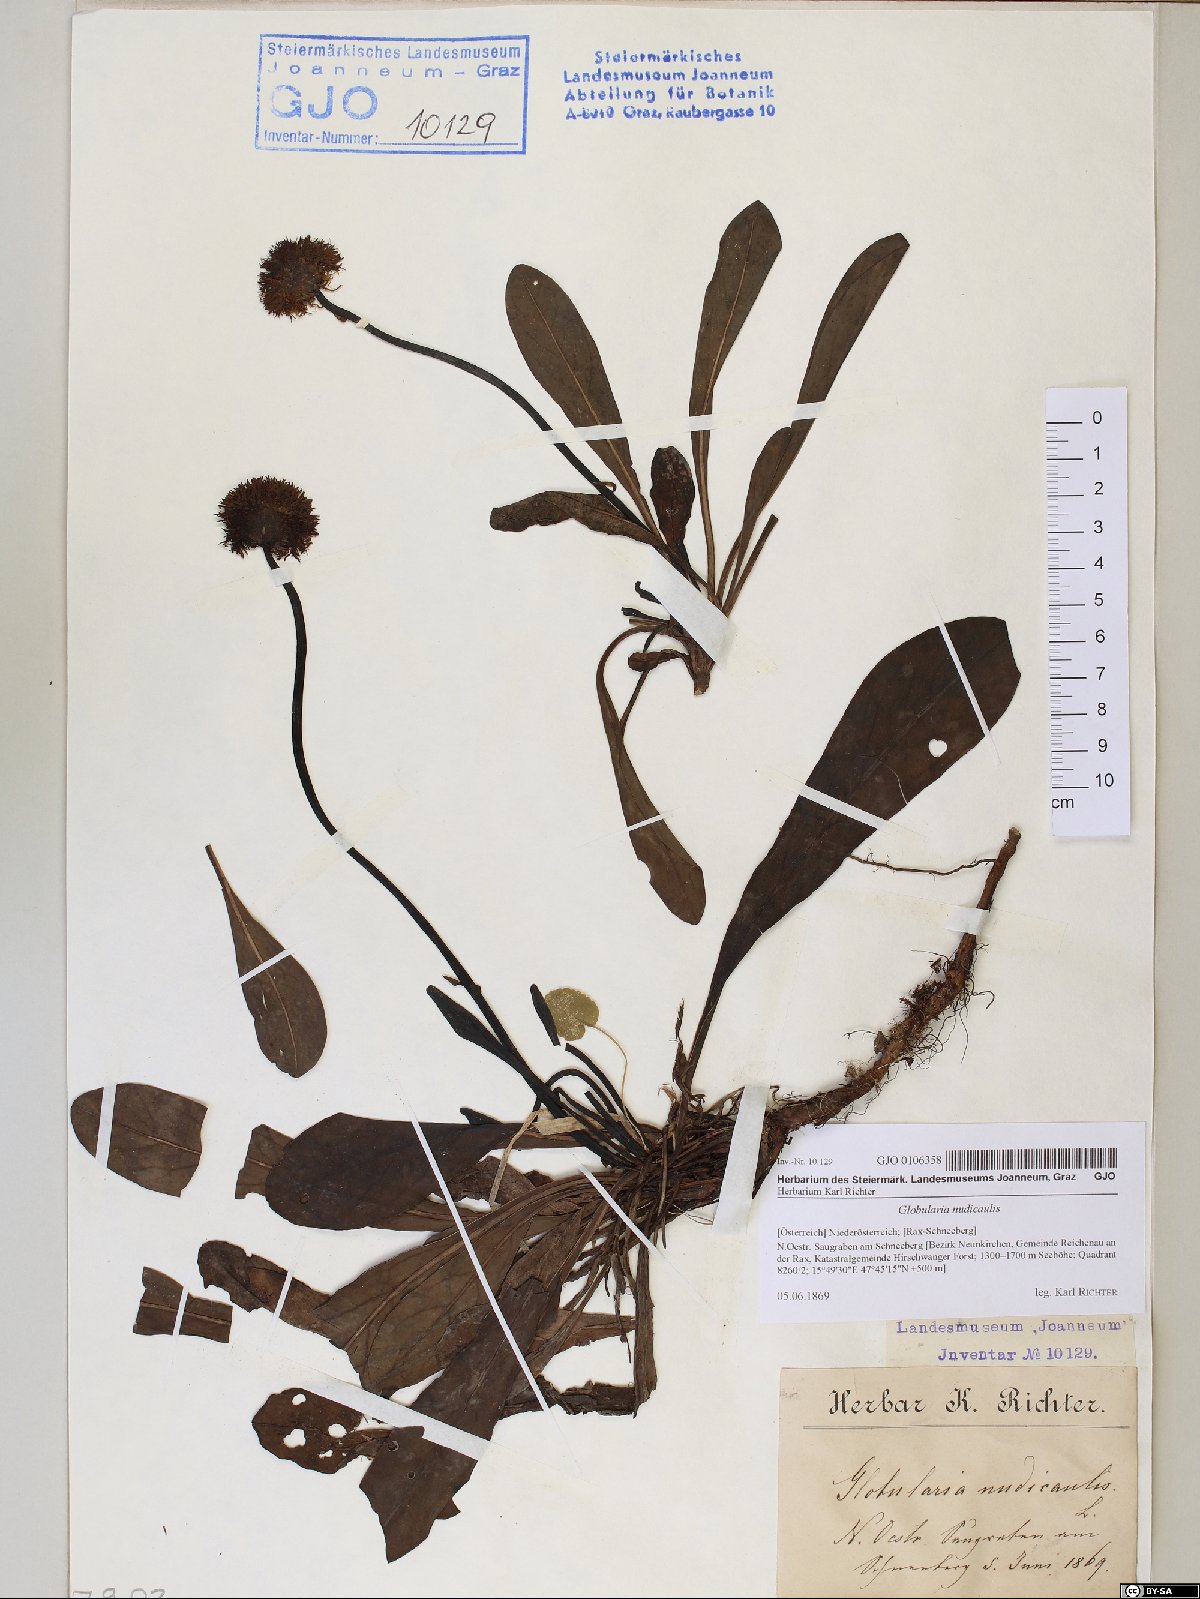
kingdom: Plantae
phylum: Tracheophyta
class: Magnoliopsida
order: Lamiales
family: Plantaginaceae
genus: Globularia
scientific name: Globularia nudicaulis
